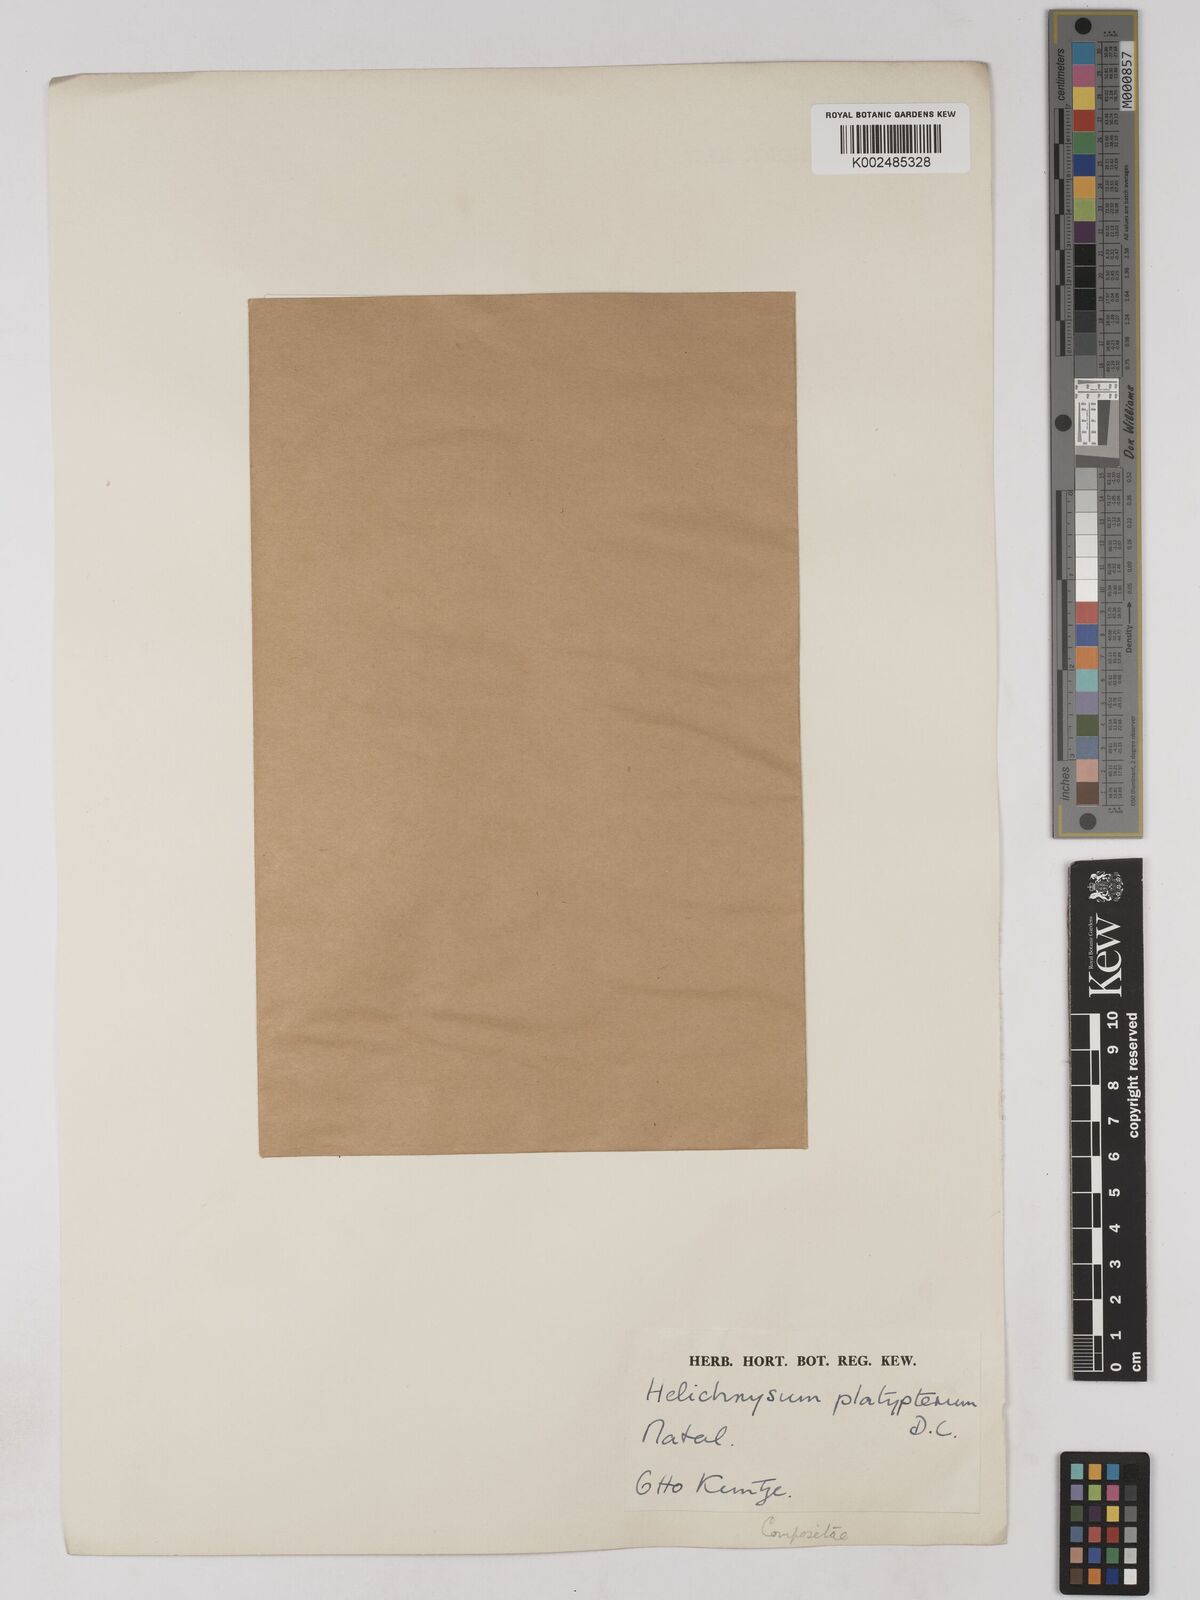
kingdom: Plantae
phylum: Tracheophyta
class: Magnoliopsida
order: Asterales
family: Asteraceae
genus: Helichrysum
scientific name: Helichrysum platypterum
